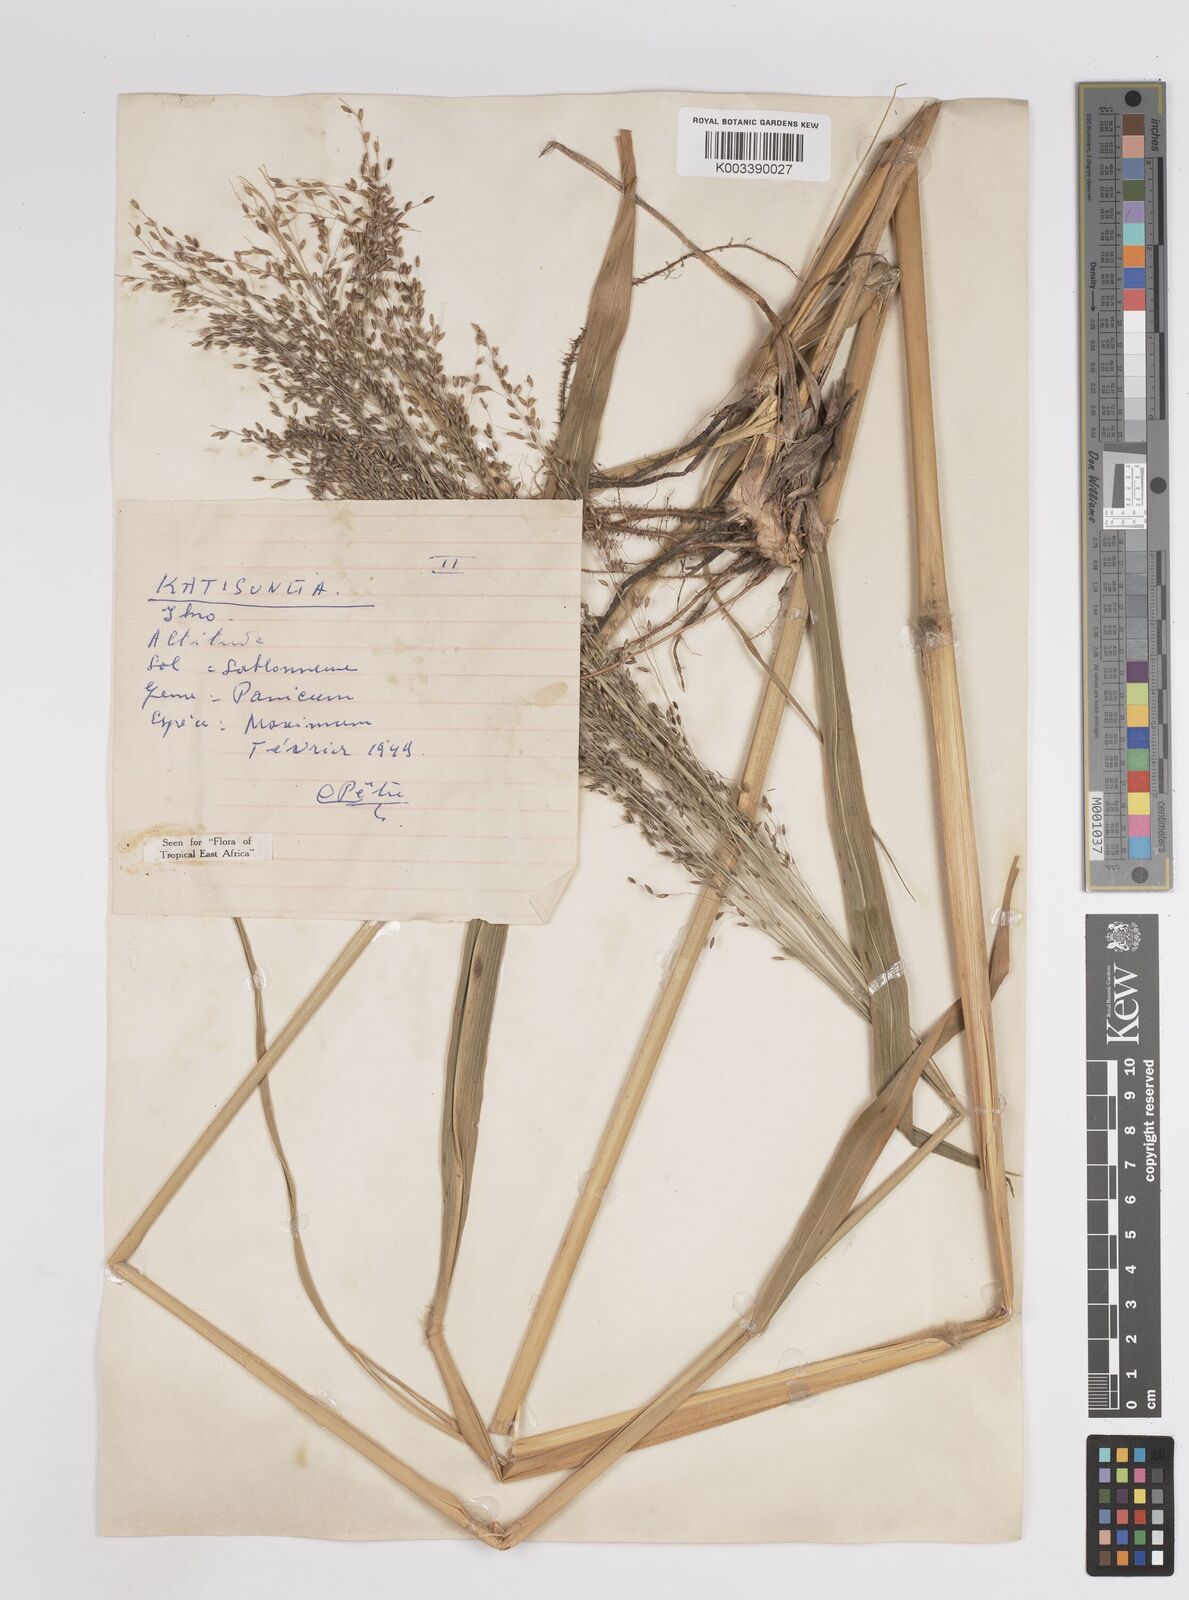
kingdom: Plantae
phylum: Tracheophyta
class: Liliopsida
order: Poales
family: Poaceae
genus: Megathyrsus
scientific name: Megathyrsus maximus
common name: Guineagrass
